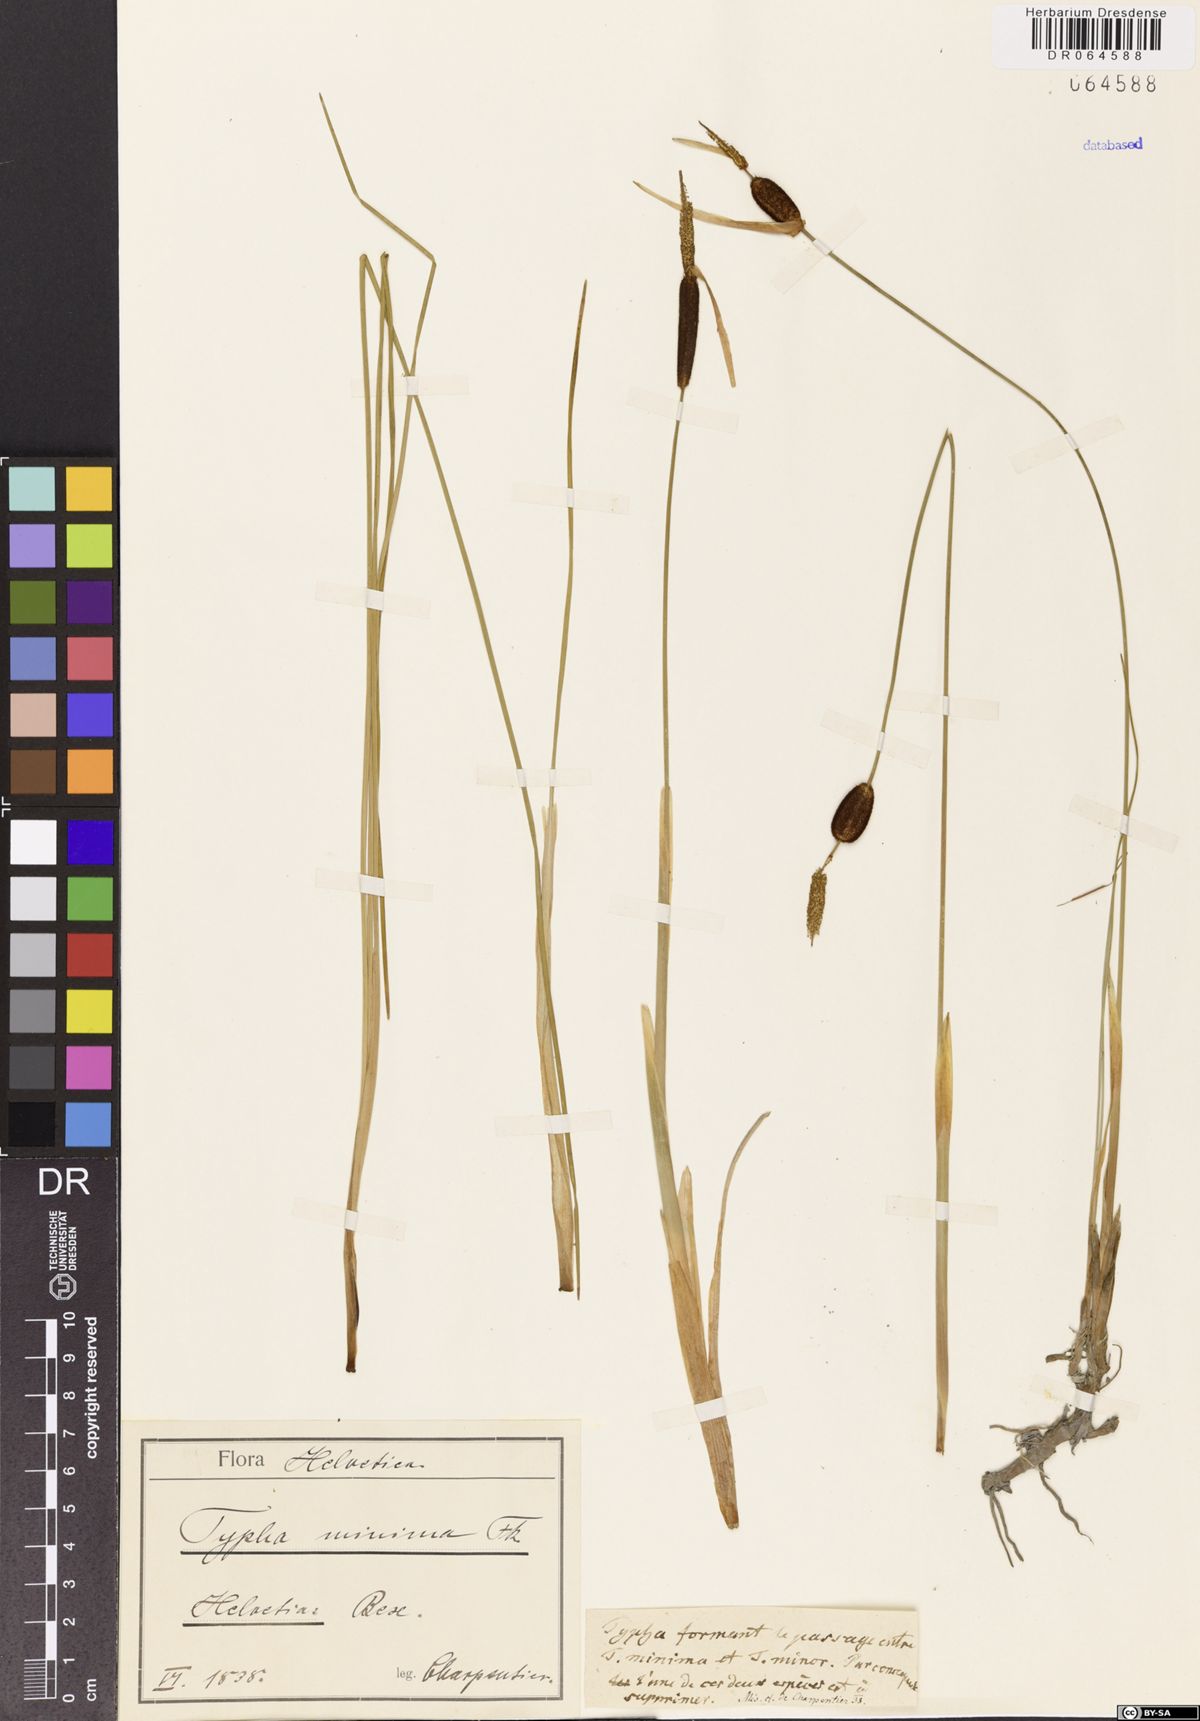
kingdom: Plantae
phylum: Tracheophyta
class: Liliopsida
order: Poales
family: Typhaceae
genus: Typha
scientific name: Typha minima
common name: Dwarf bulrush
